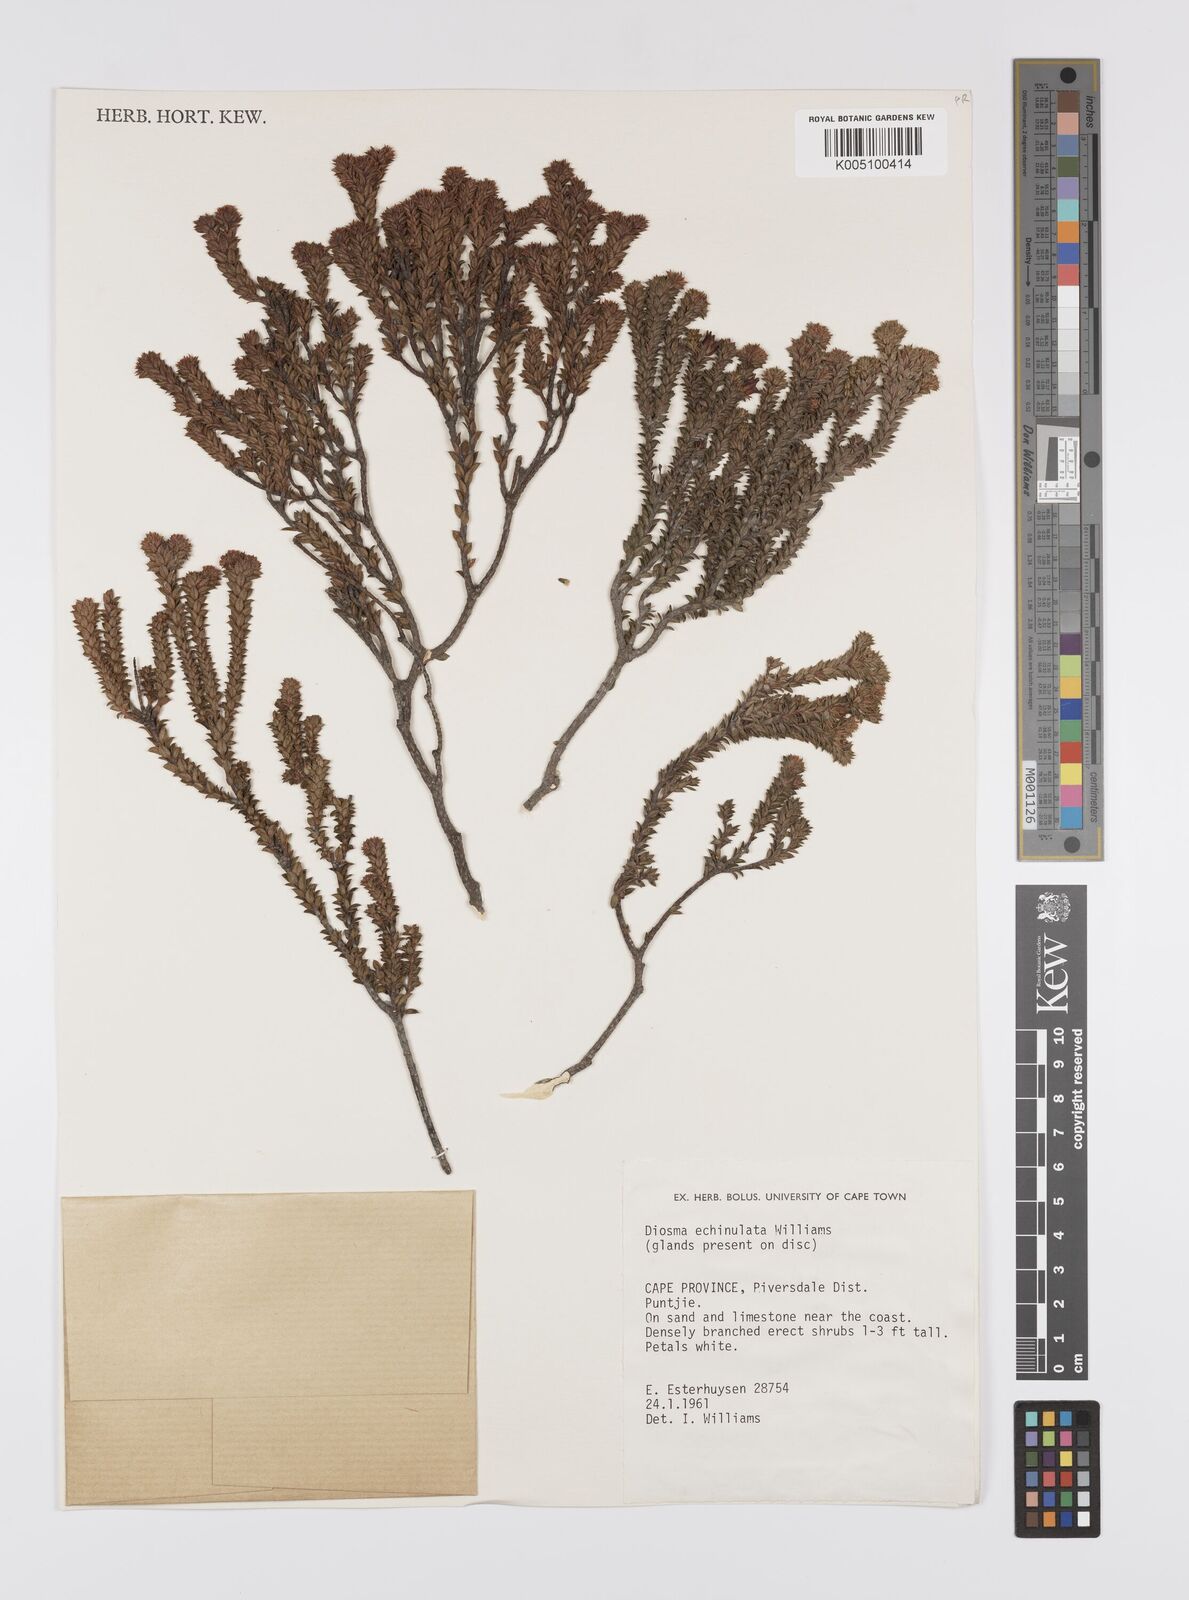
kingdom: Plantae
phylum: Tracheophyta
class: Magnoliopsida
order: Sapindales
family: Rutaceae
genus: Diosma
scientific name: Diosma recurva
